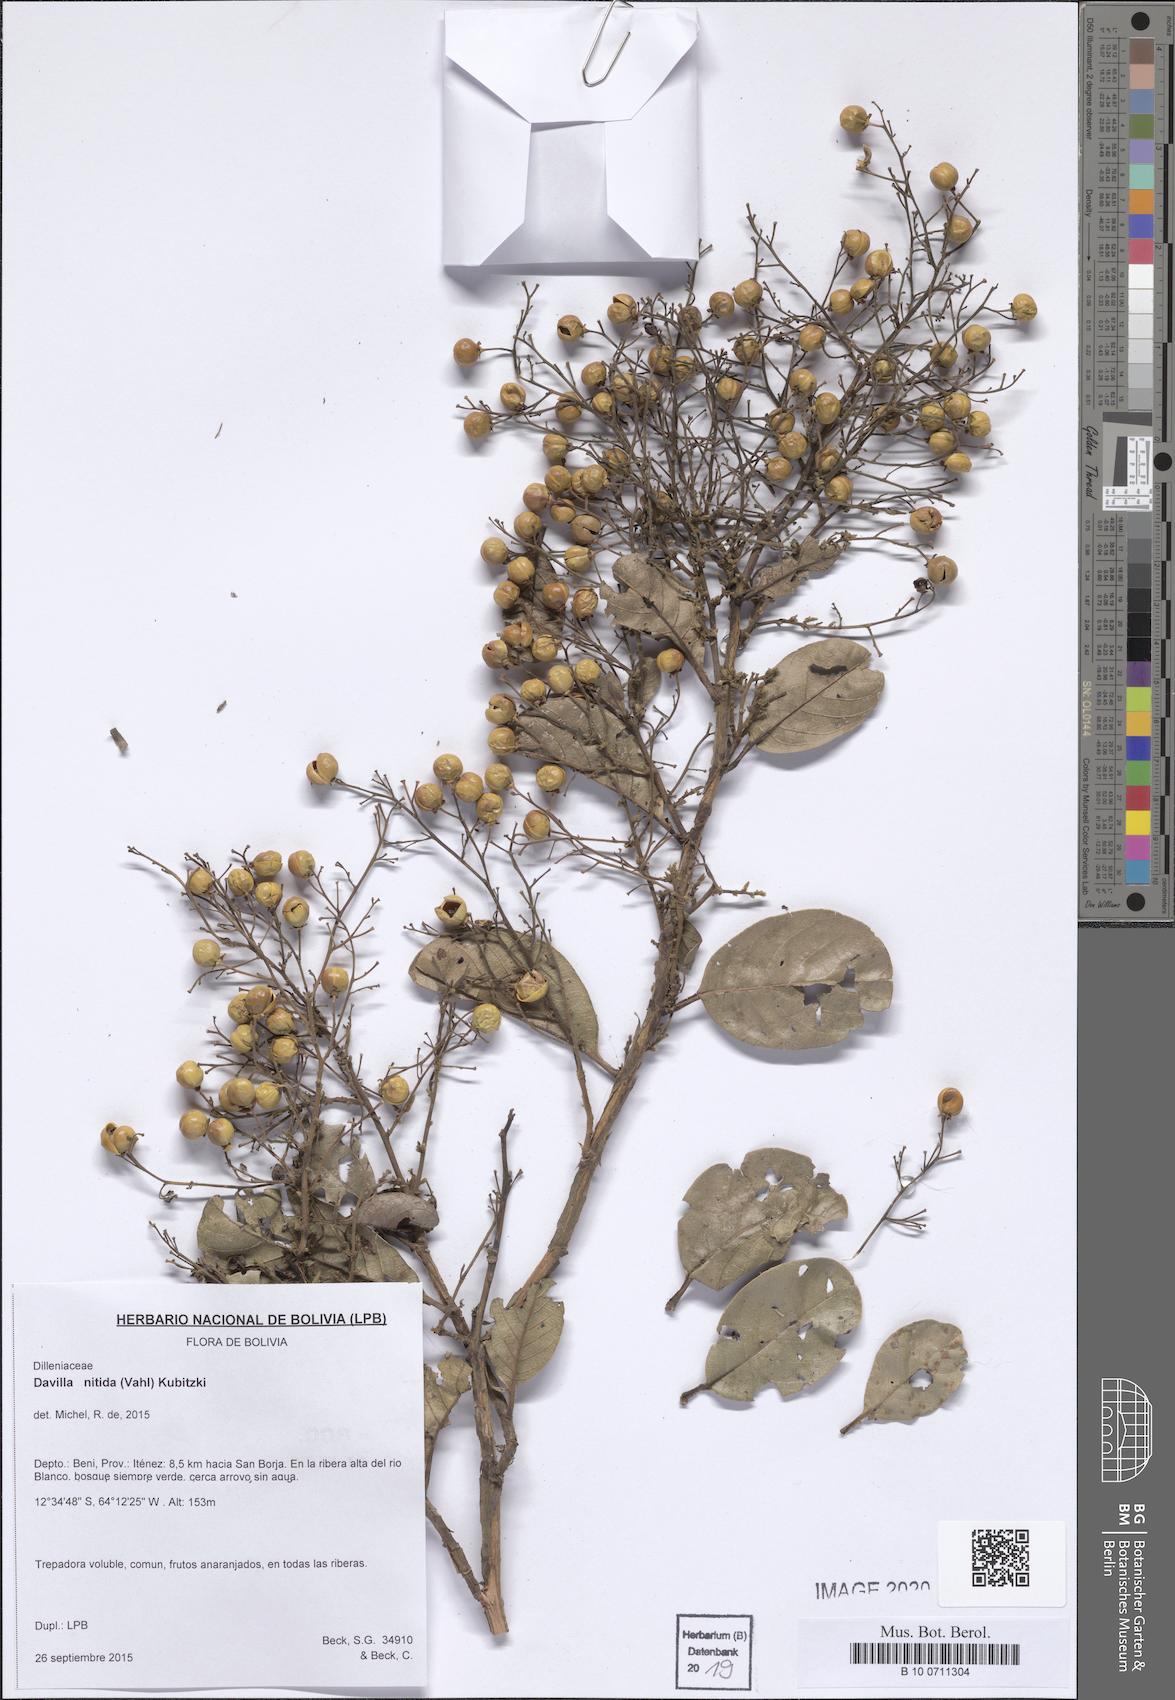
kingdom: Plantae
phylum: Tracheophyta
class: Magnoliopsida
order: Dilleniales
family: Dilleniaceae
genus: Davilla
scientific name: Davilla nitida
